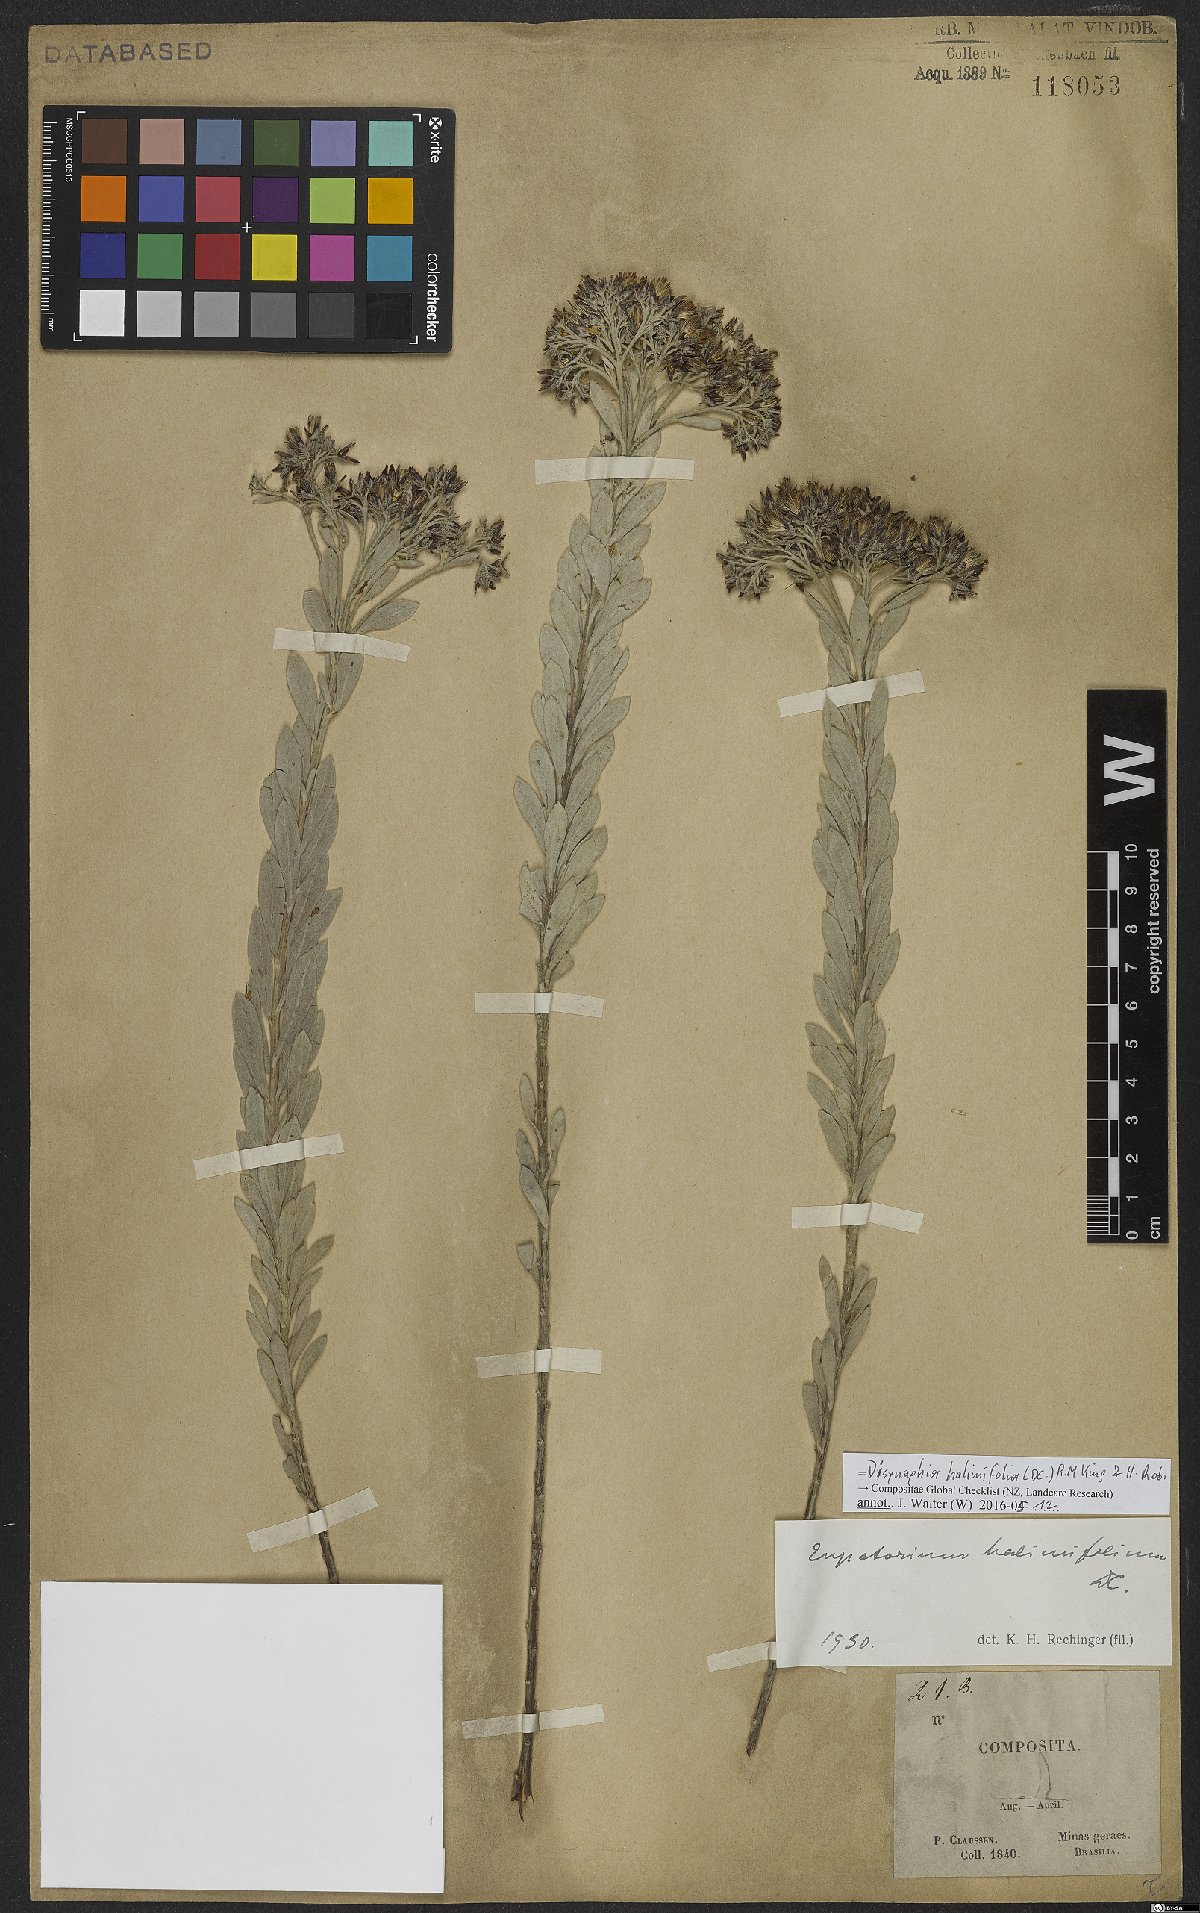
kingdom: Plantae
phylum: Tracheophyta
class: Magnoliopsida
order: Asterales
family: Asteraceae
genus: Disynaphia
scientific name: Disynaphia halimifolia
